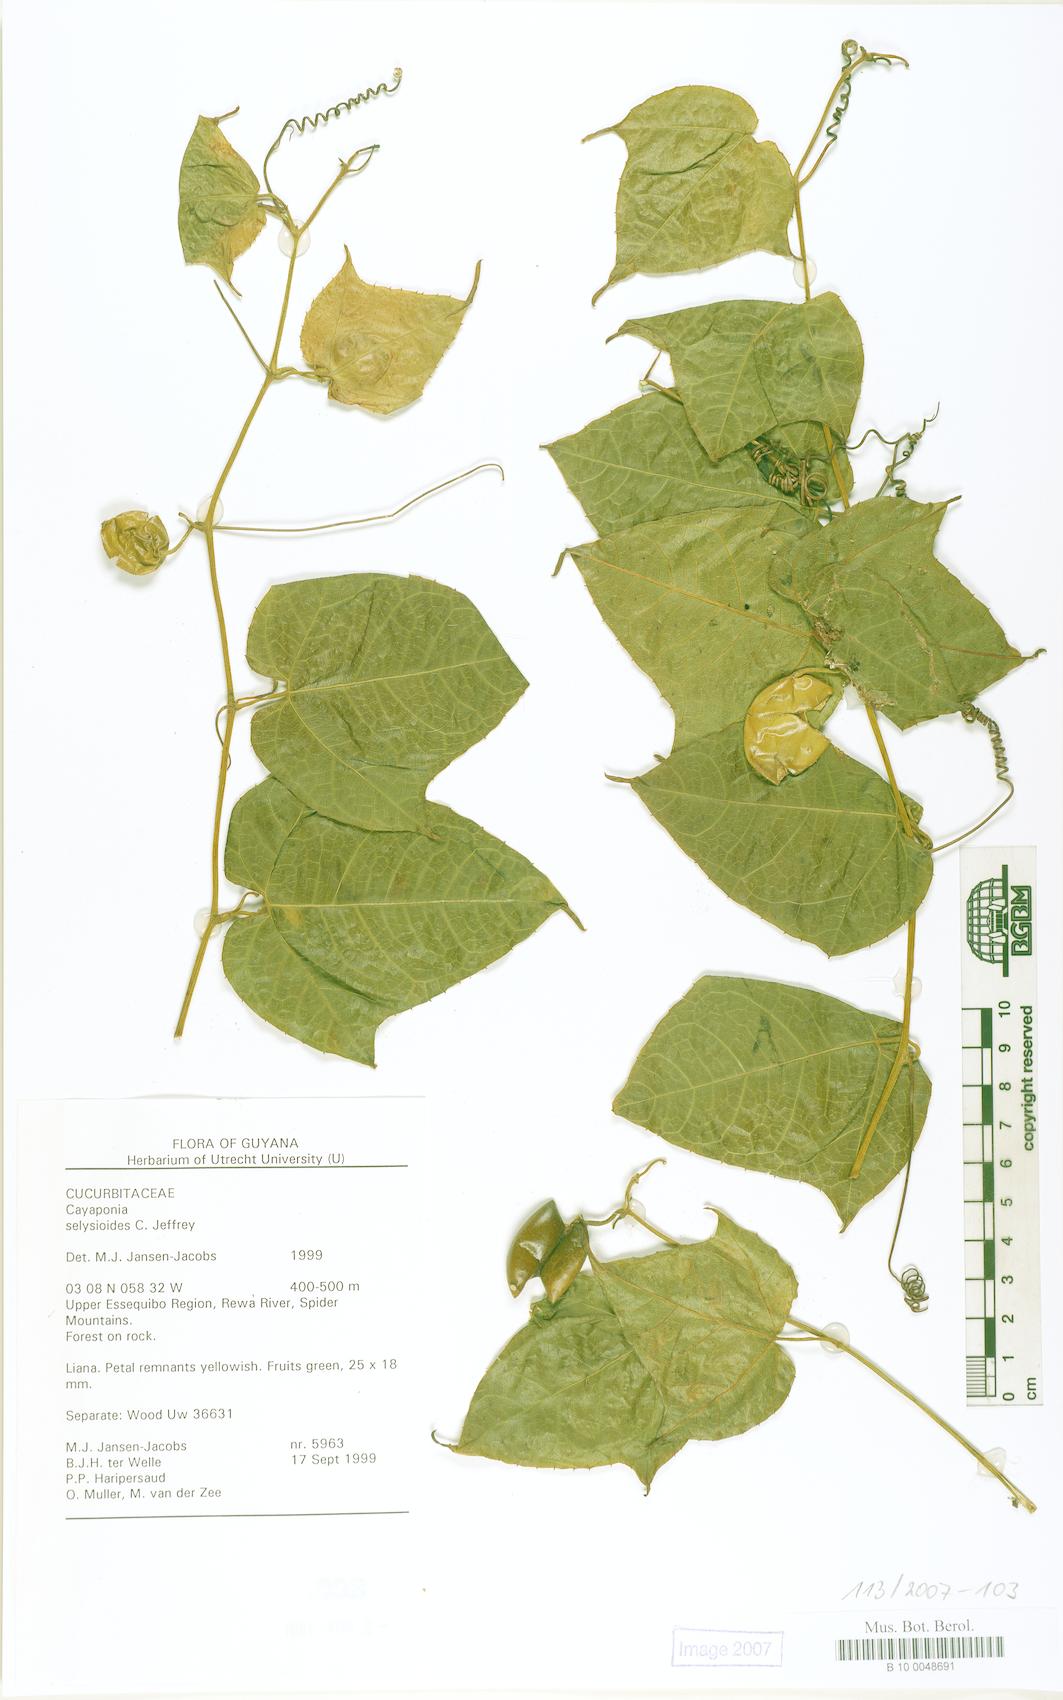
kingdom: Plantae
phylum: Tracheophyta
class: Magnoliopsida
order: Cucurbitales
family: Cucurbitaceae
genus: Cayaponia
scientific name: Cayaponia selysioides
